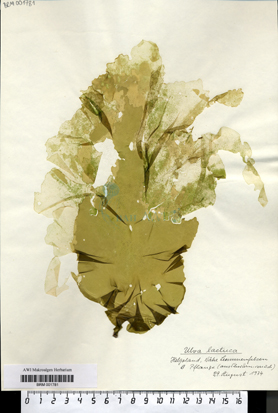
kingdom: Plantae
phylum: Chlorophyta
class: Ulvophyceae
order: Ulvales
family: Ulvaceae
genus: Ulva
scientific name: Ulva lactuca
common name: Sea lettuce
